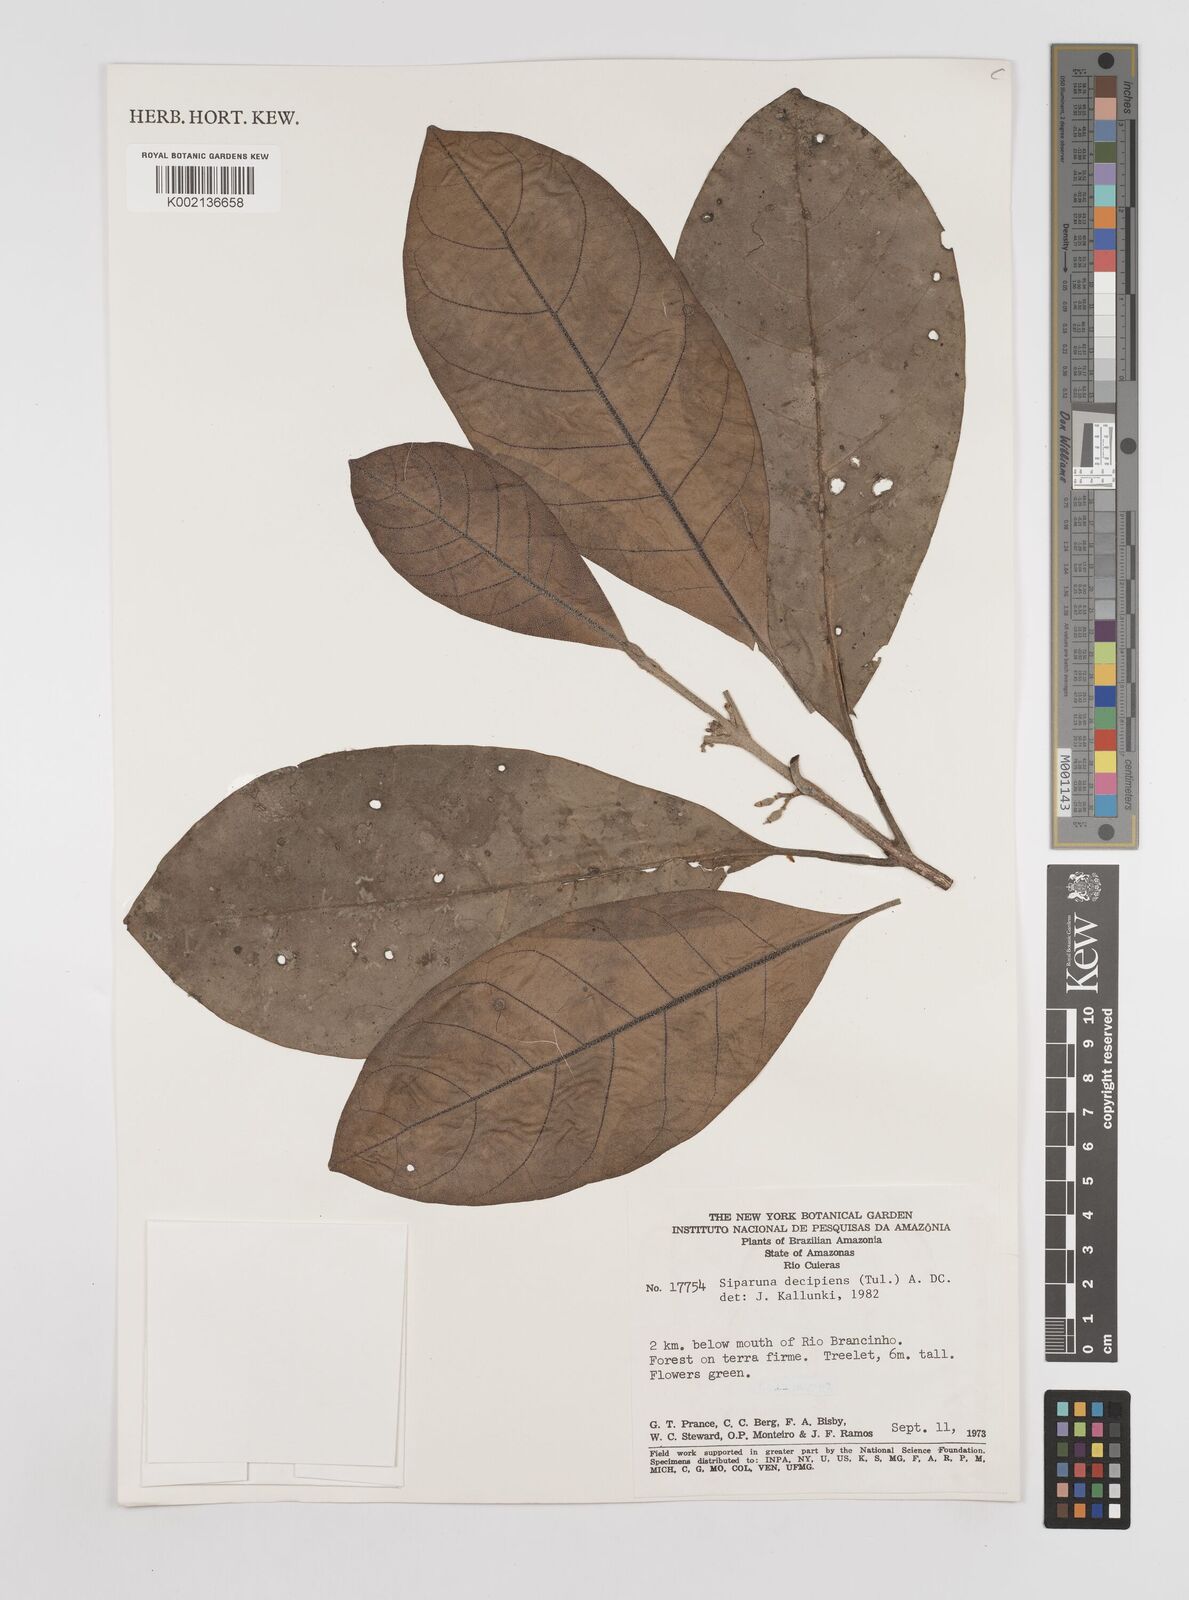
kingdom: Plantae
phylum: Tracheophyta
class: Magnoliopsida
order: Laurales
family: Siparunaceae
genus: Siparuna
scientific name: Siparuna decipiens
